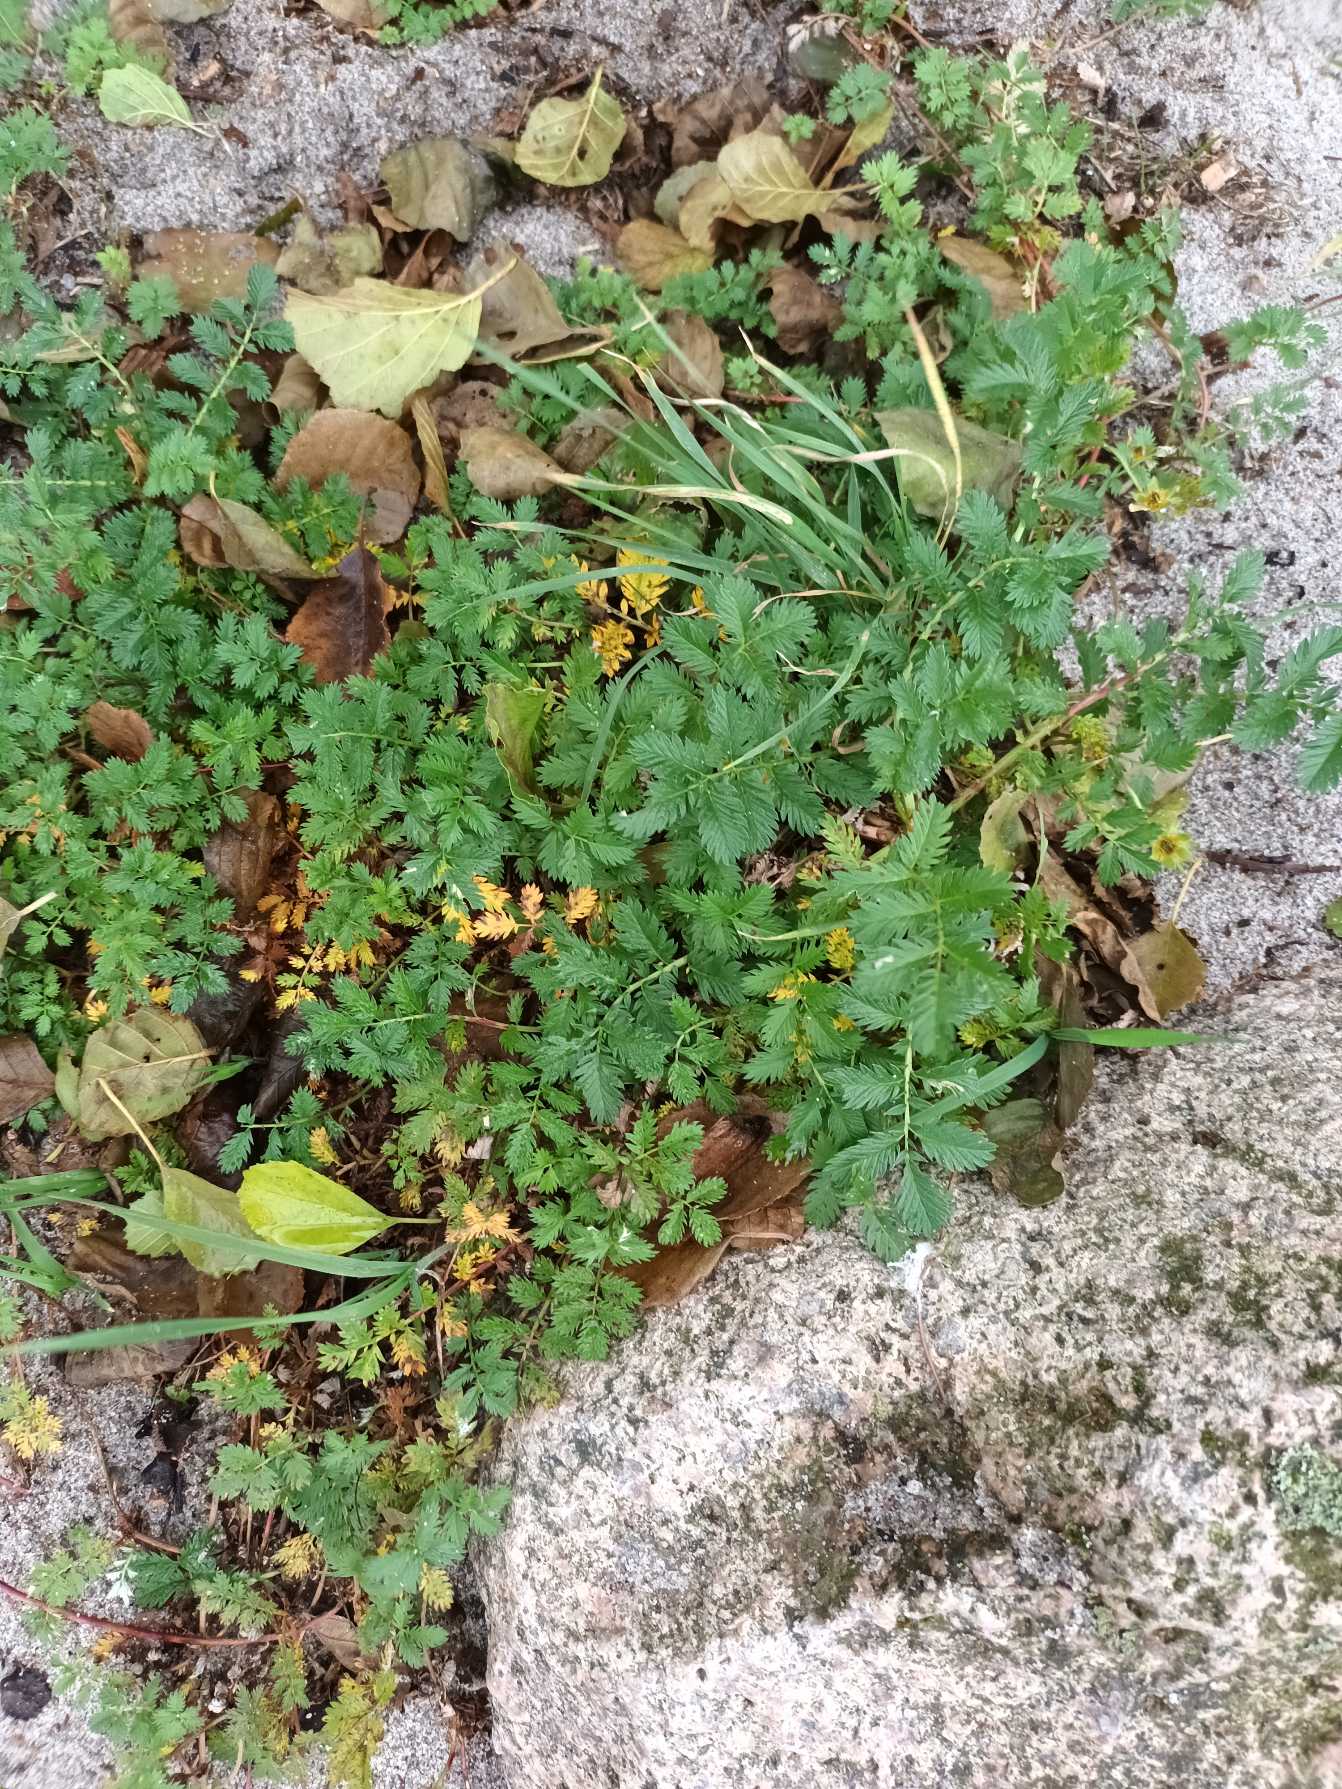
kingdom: Plantae
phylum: Tracheophyta
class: Magnoliopsida
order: Rosales
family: Rosaceae
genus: Argentina
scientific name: Argentina anserina
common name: Gåsepotentil
